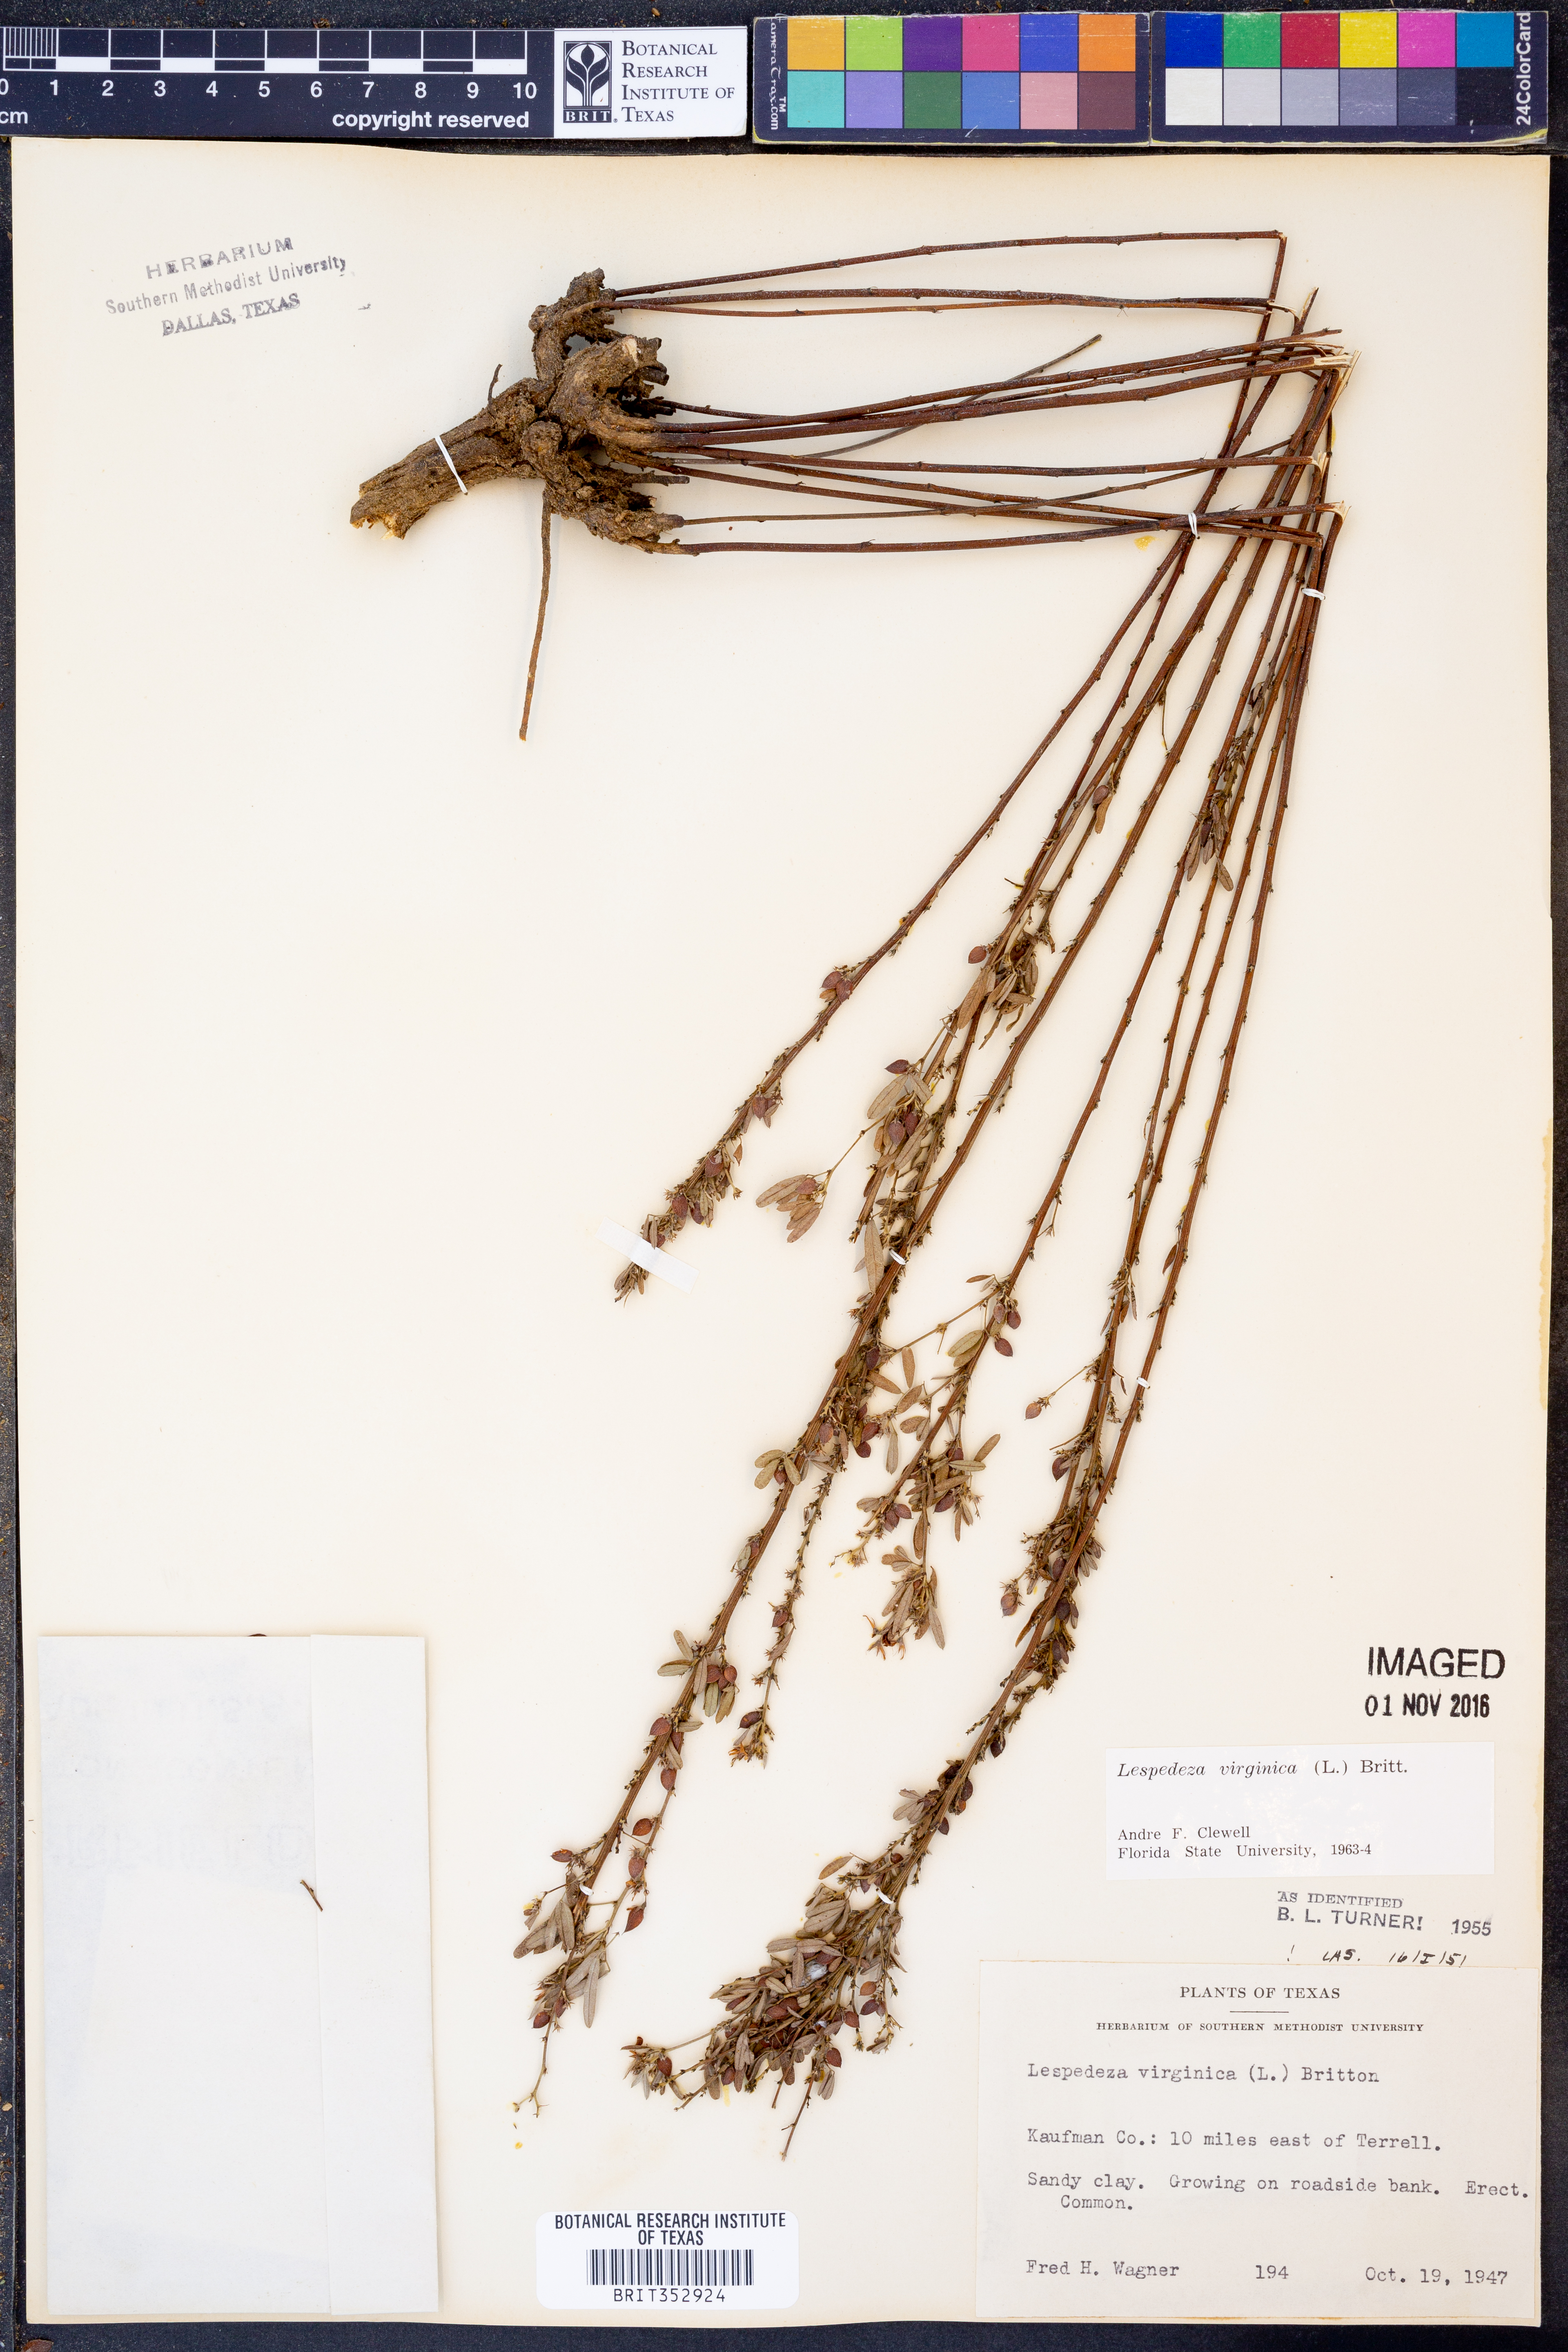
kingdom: Plantae
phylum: Tracheophyta
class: Magnoliopsida
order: Fabales
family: Fabaceae
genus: Lespedeza
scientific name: Lespedeza virginica
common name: Slender bush-clover
